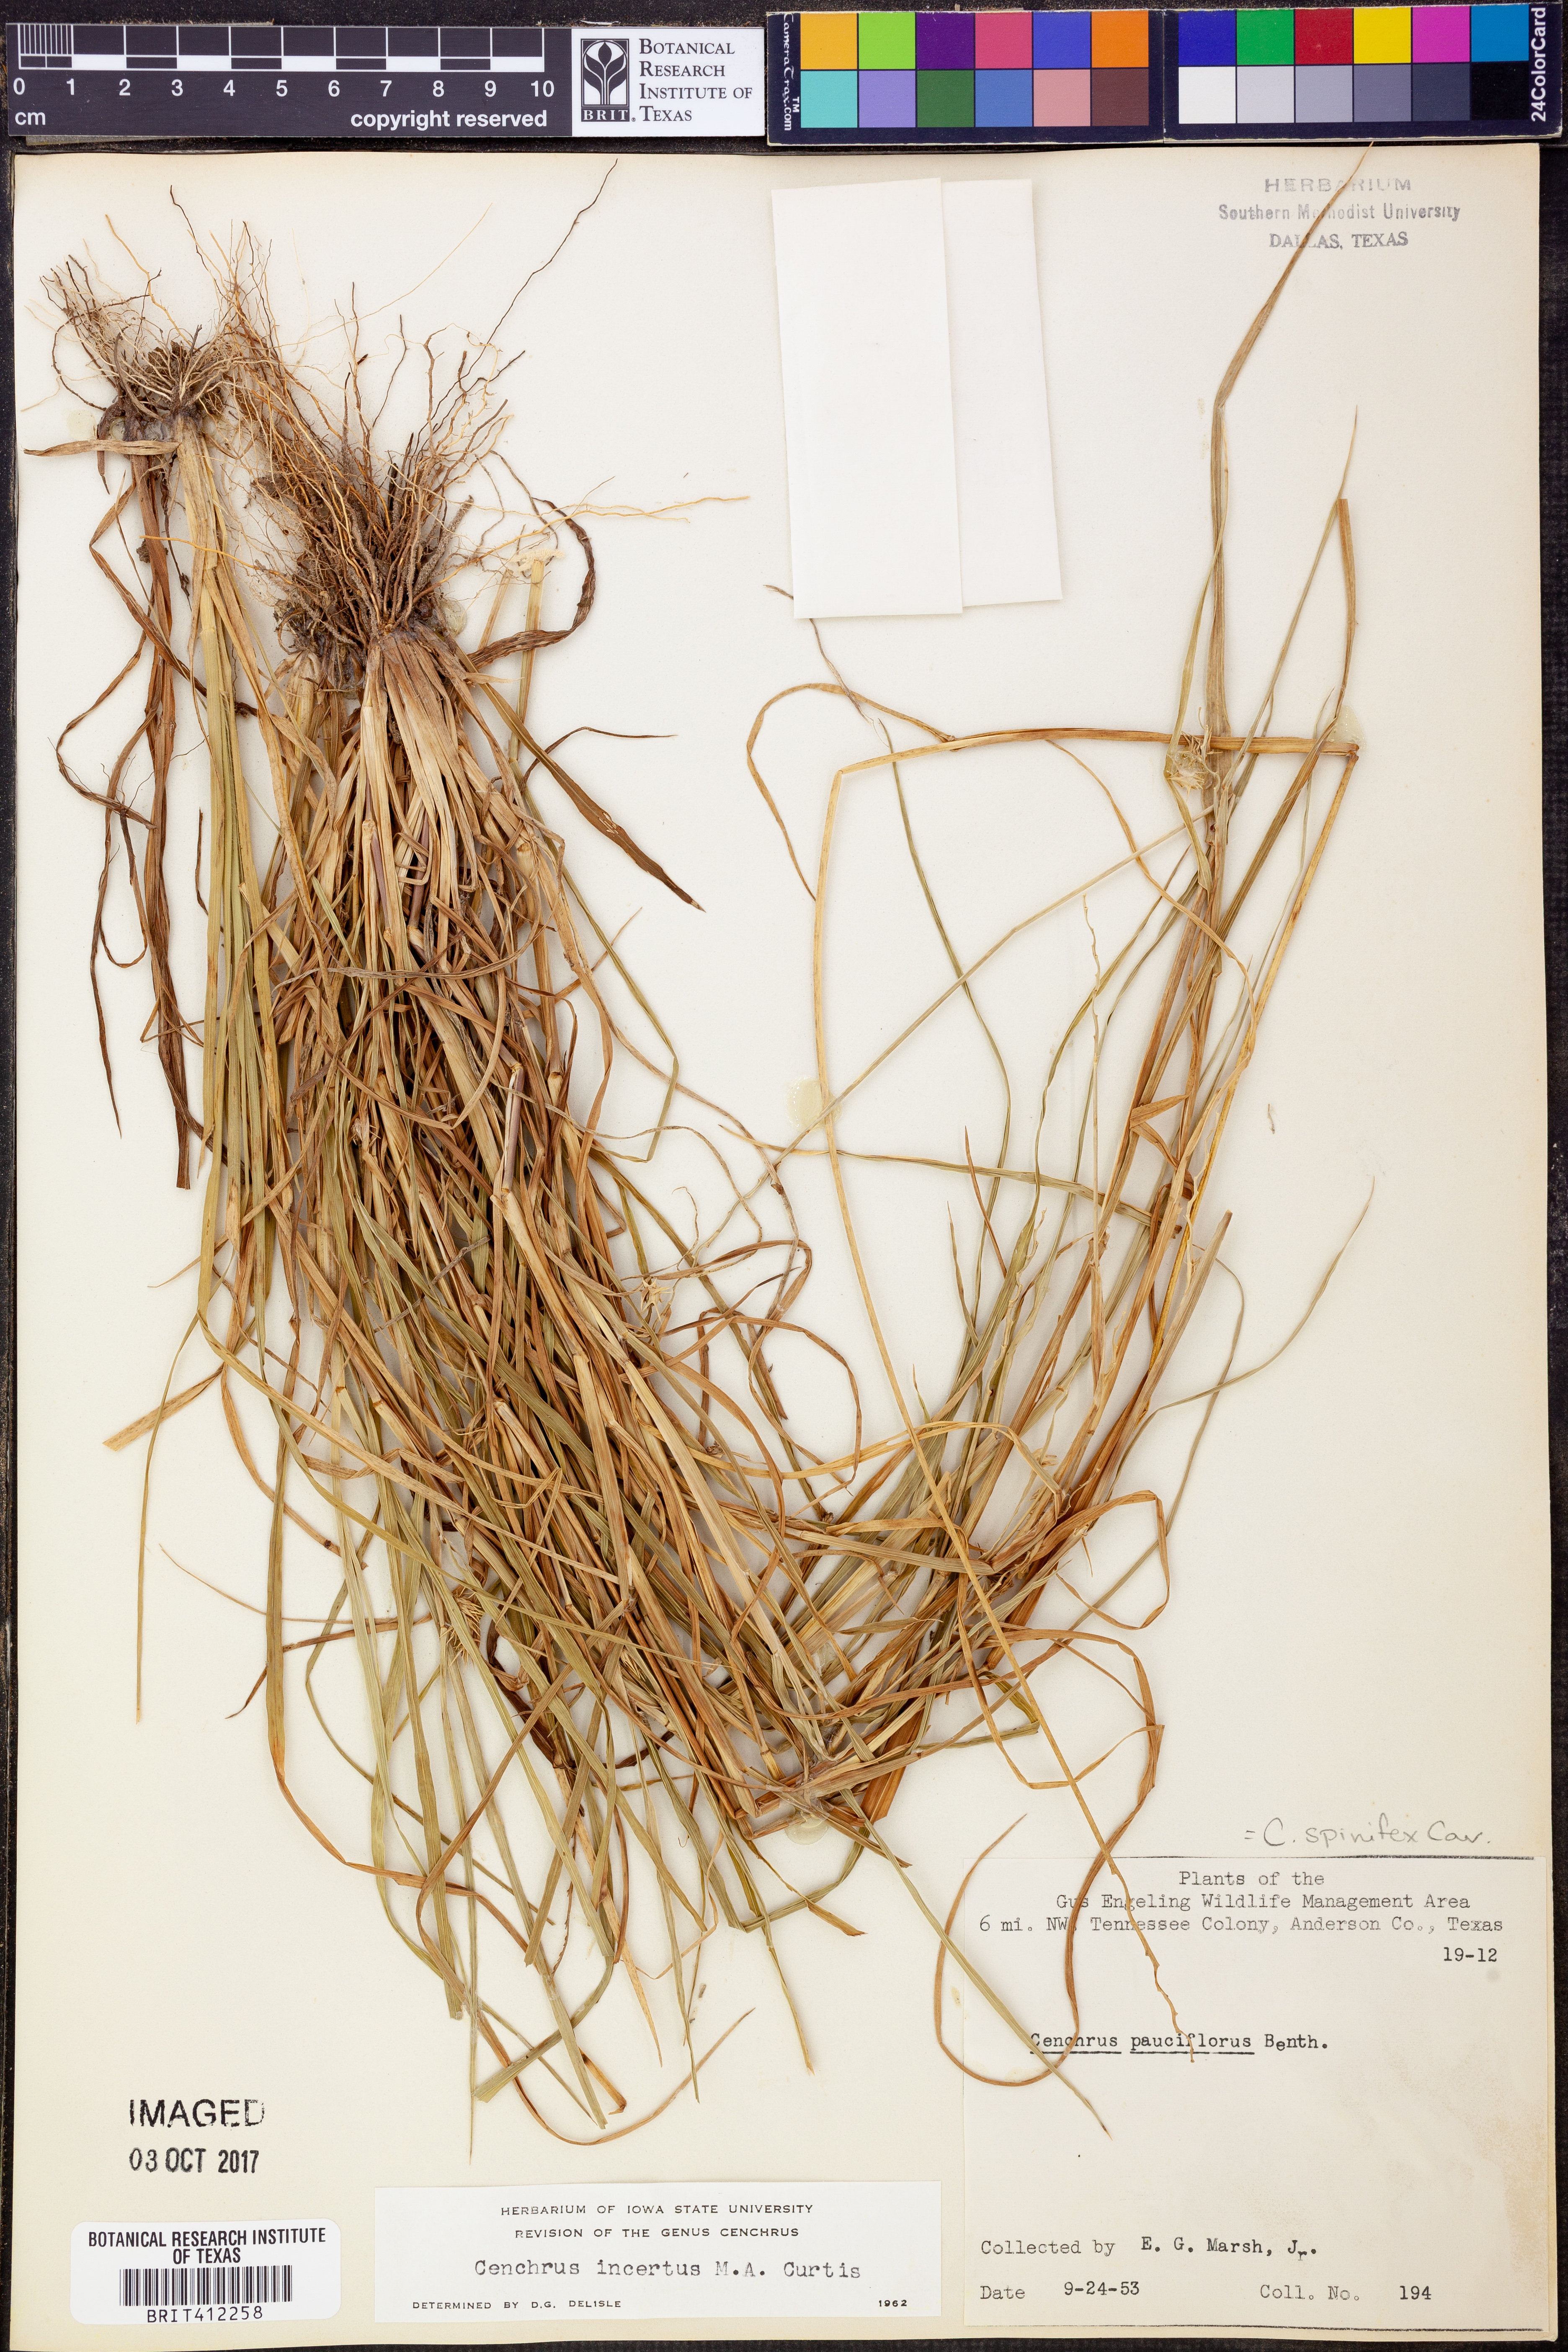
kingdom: Plantae
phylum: Tracheophyta
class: Liliopsida
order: Poales
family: Poaceae
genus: Cenchrus
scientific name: Cenchrus spinifex
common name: Coast sandbur
